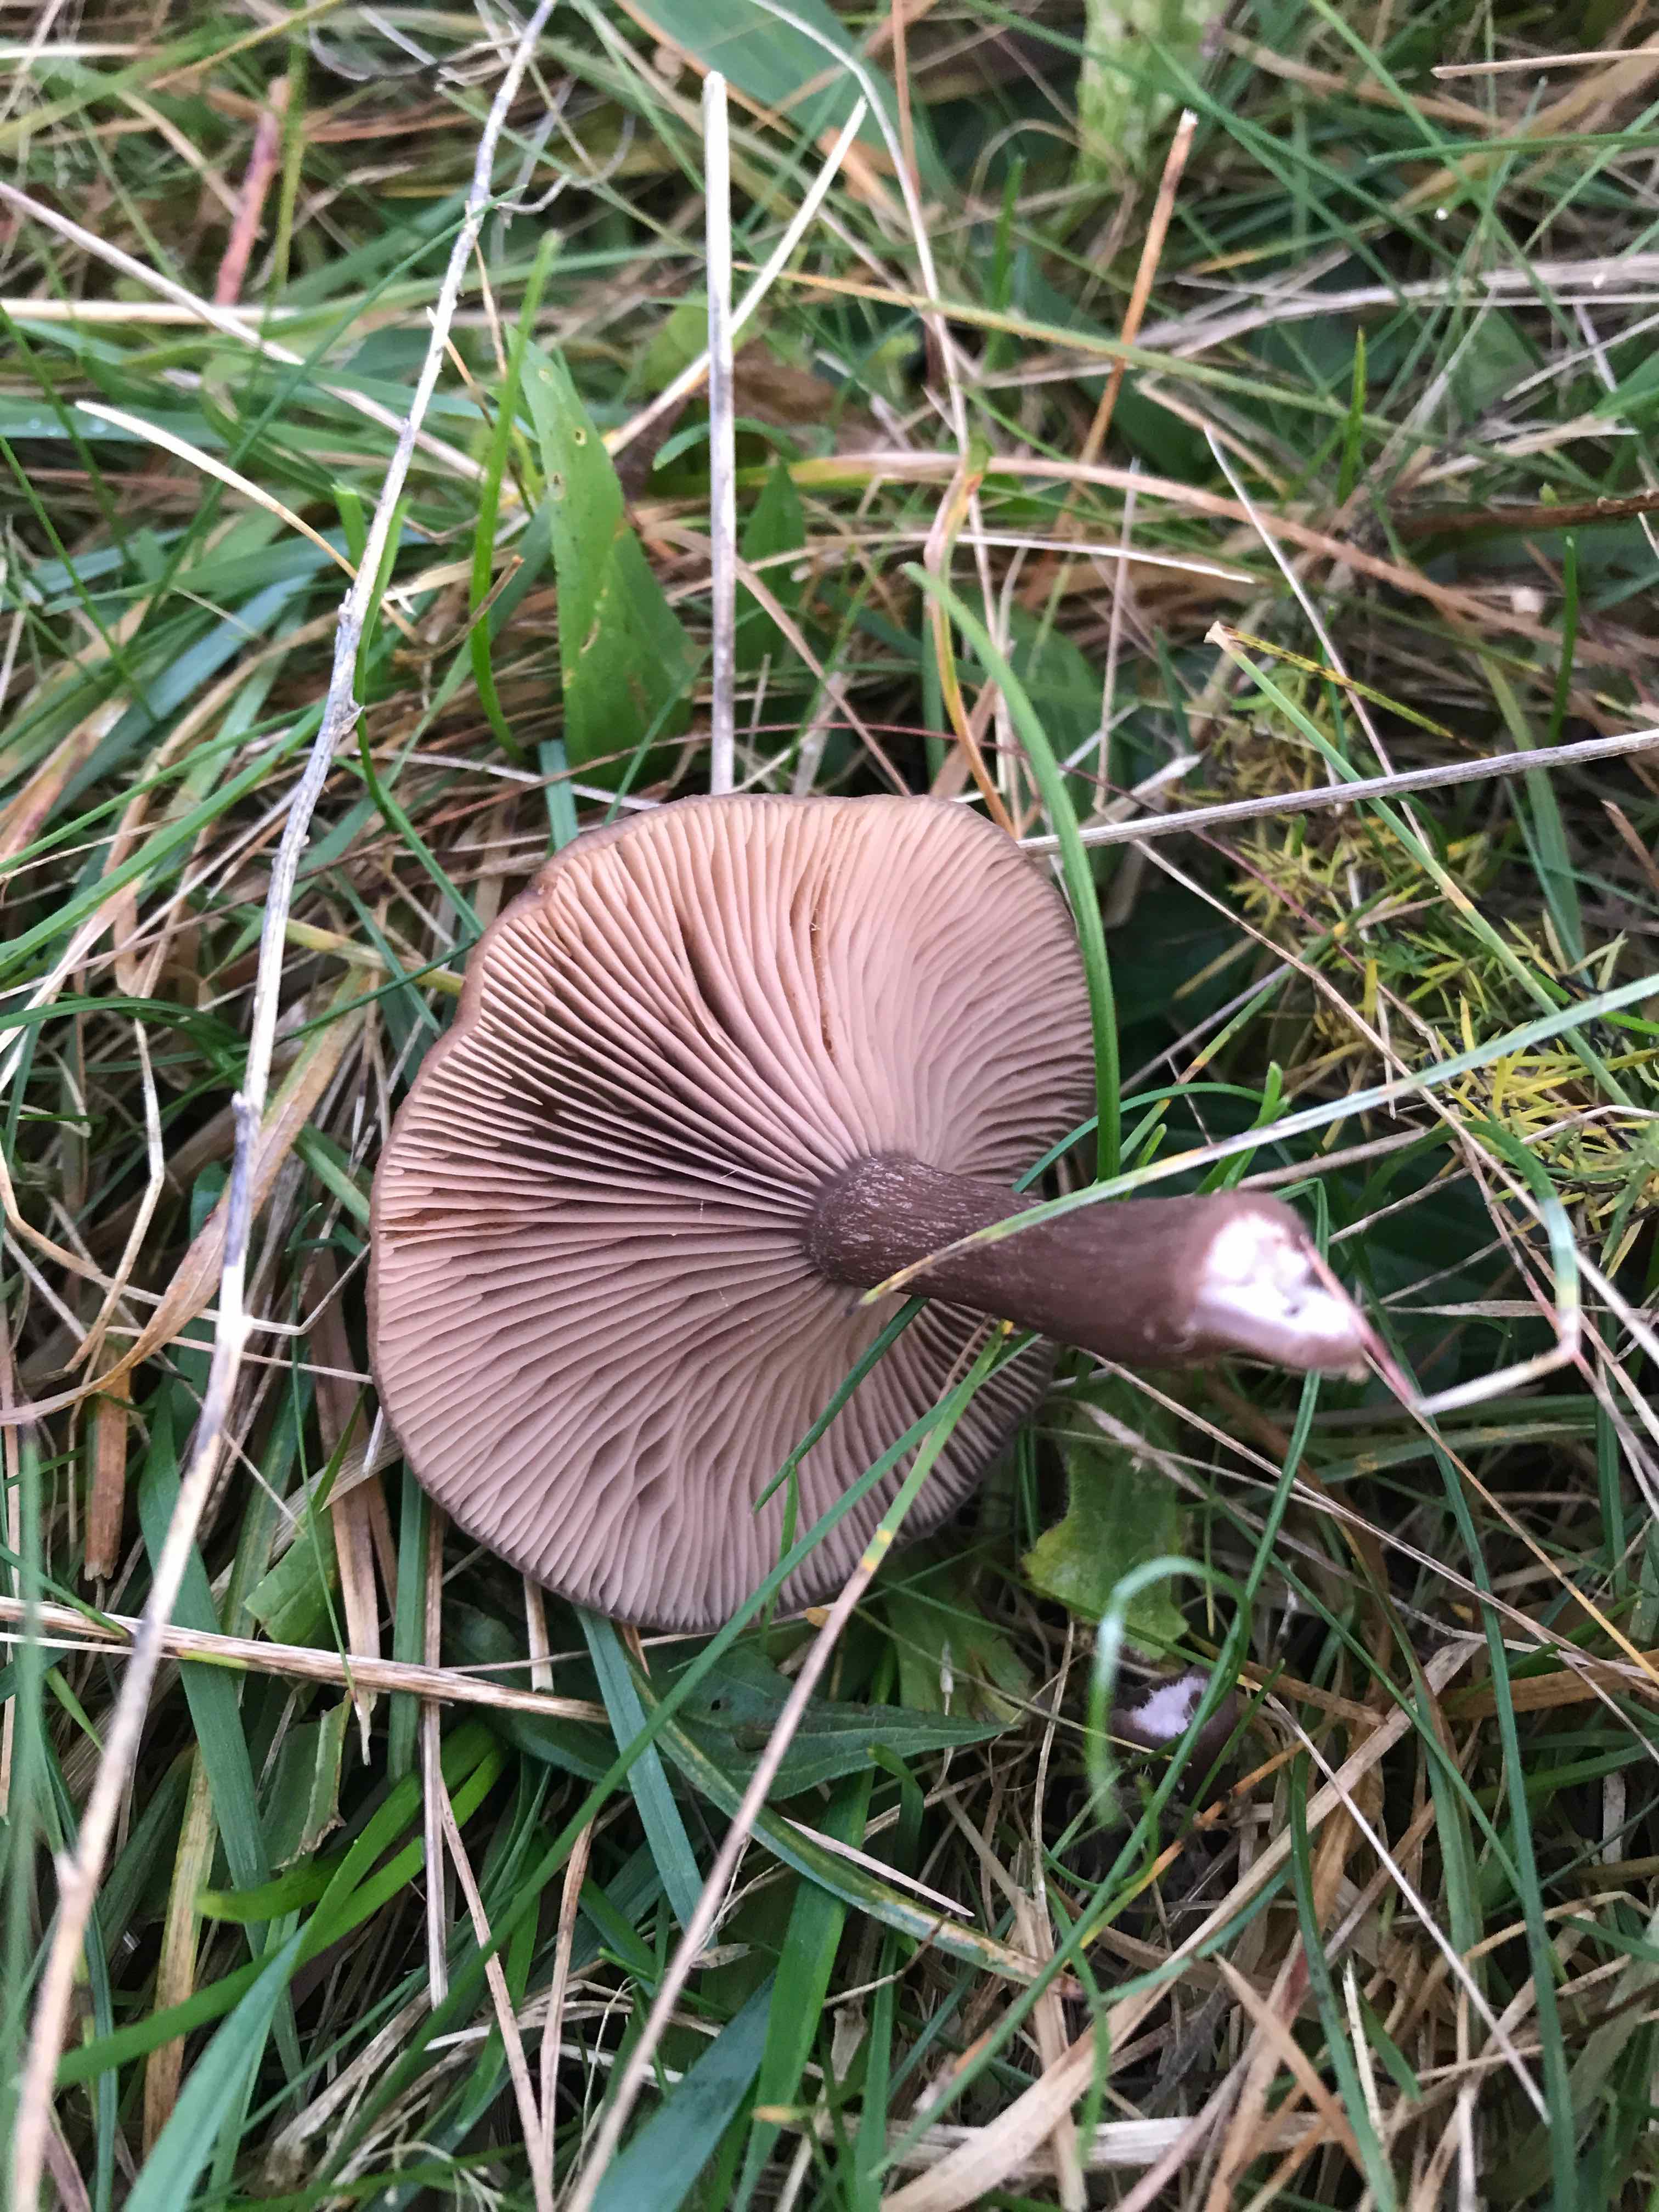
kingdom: Fungi
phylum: Basidiomycota
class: Agaricomycetes
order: Agaricales
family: Pseudoclitocybaceae
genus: Pseudoclitocybe
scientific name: Pseudoclitocybe cyathiformis
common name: almindelig bægertragthat
